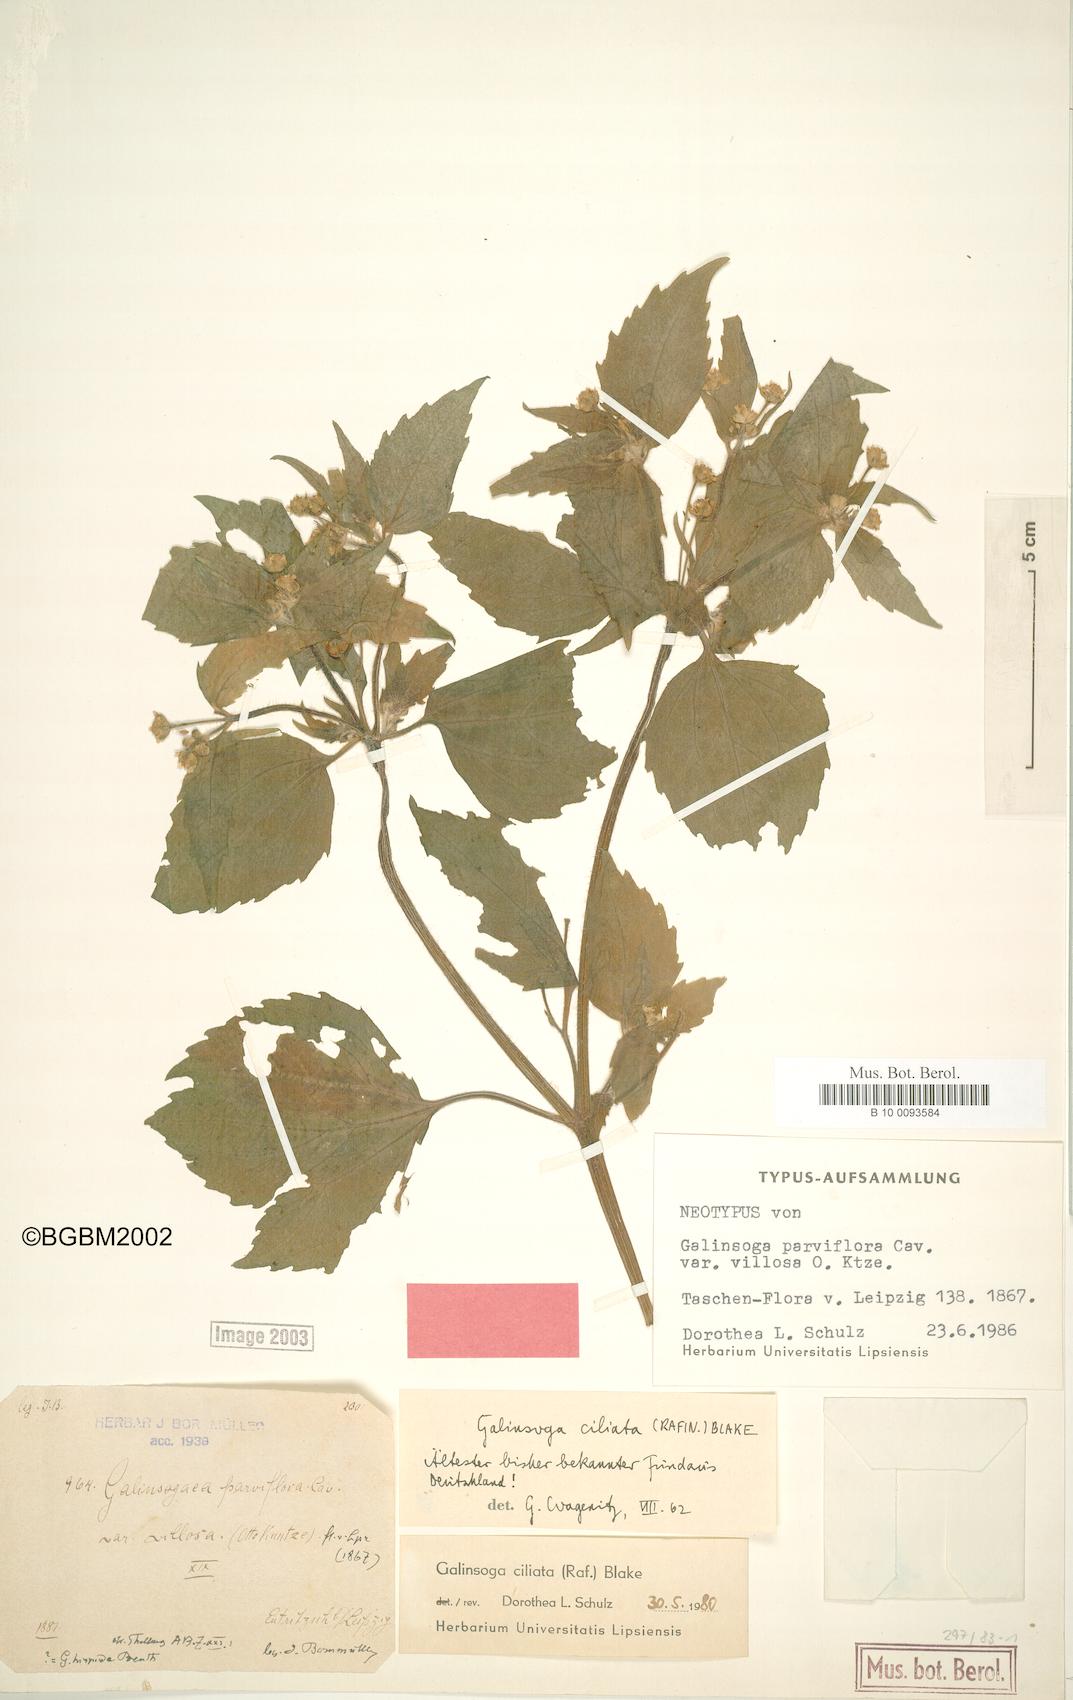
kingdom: Plantae
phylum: Tracheophyta
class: Magnoliopsida
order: Asterales
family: Asteraceae
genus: Galinsoga
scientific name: Galinsoga parviflora
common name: Gallant soldier
